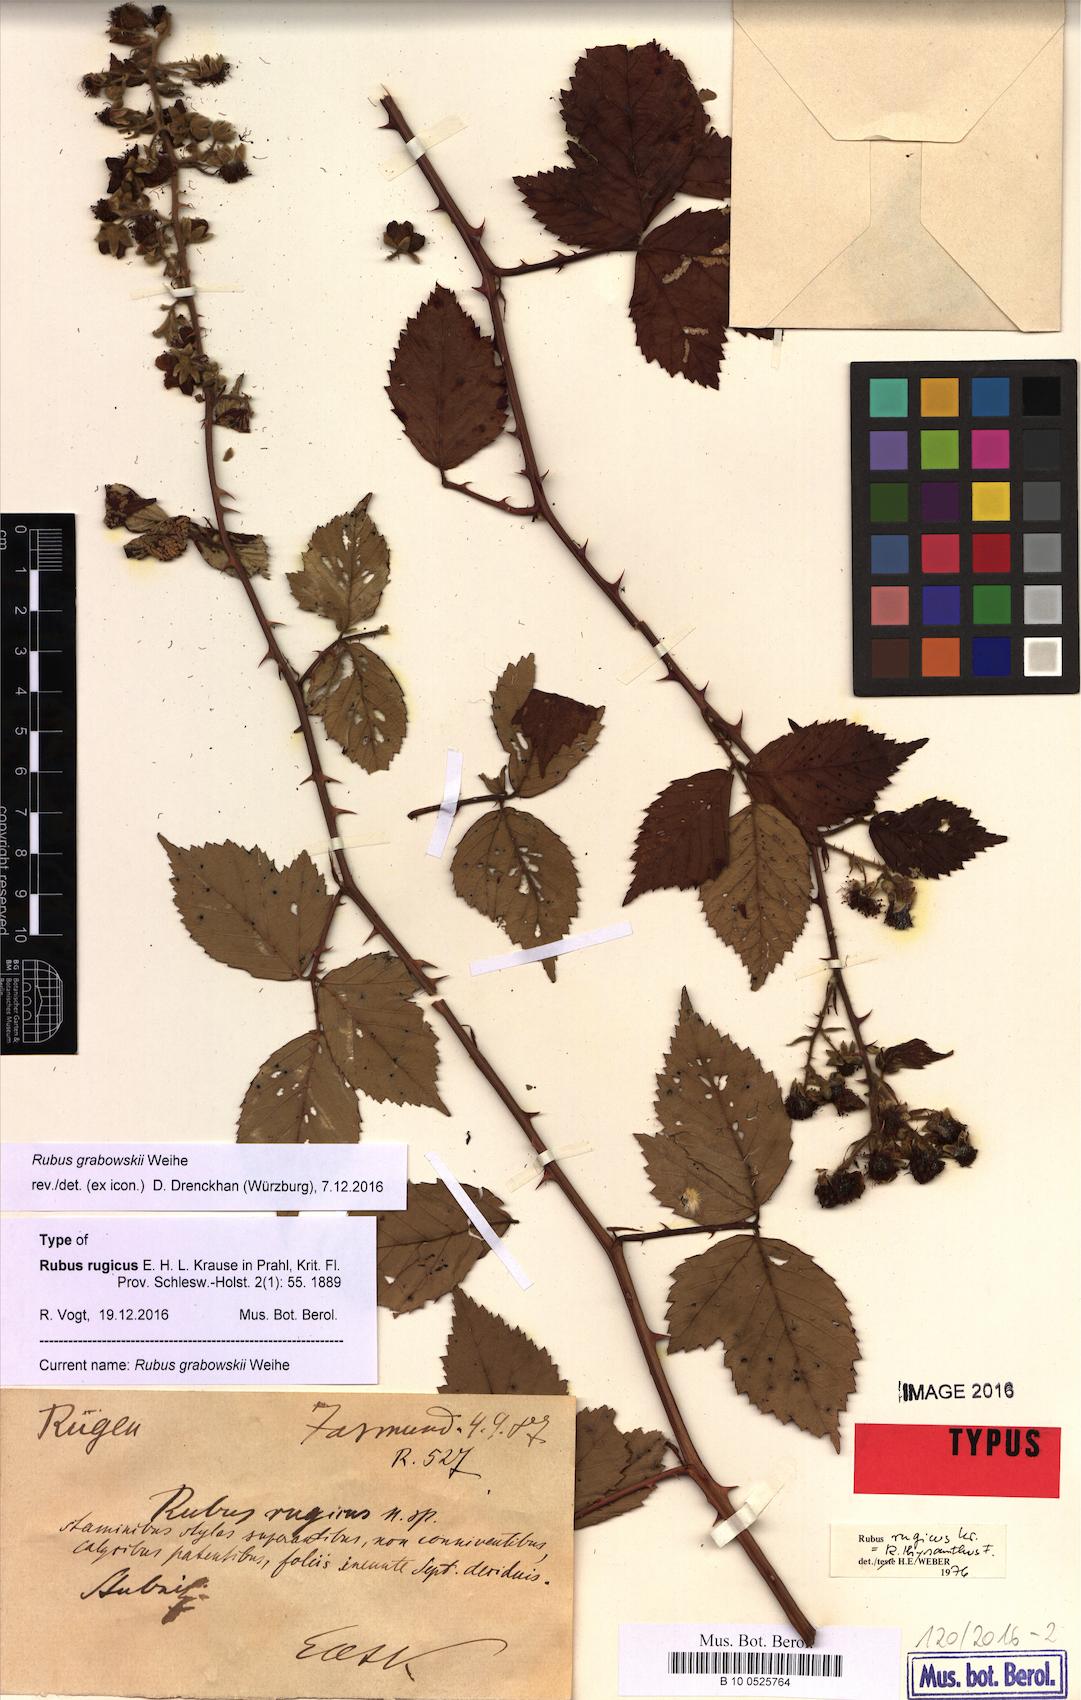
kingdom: Plantae
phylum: Tracheophyta
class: Magnoliopsida
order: Rosales
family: Rosaceae
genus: Rubus
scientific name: Rubus grabowskii
